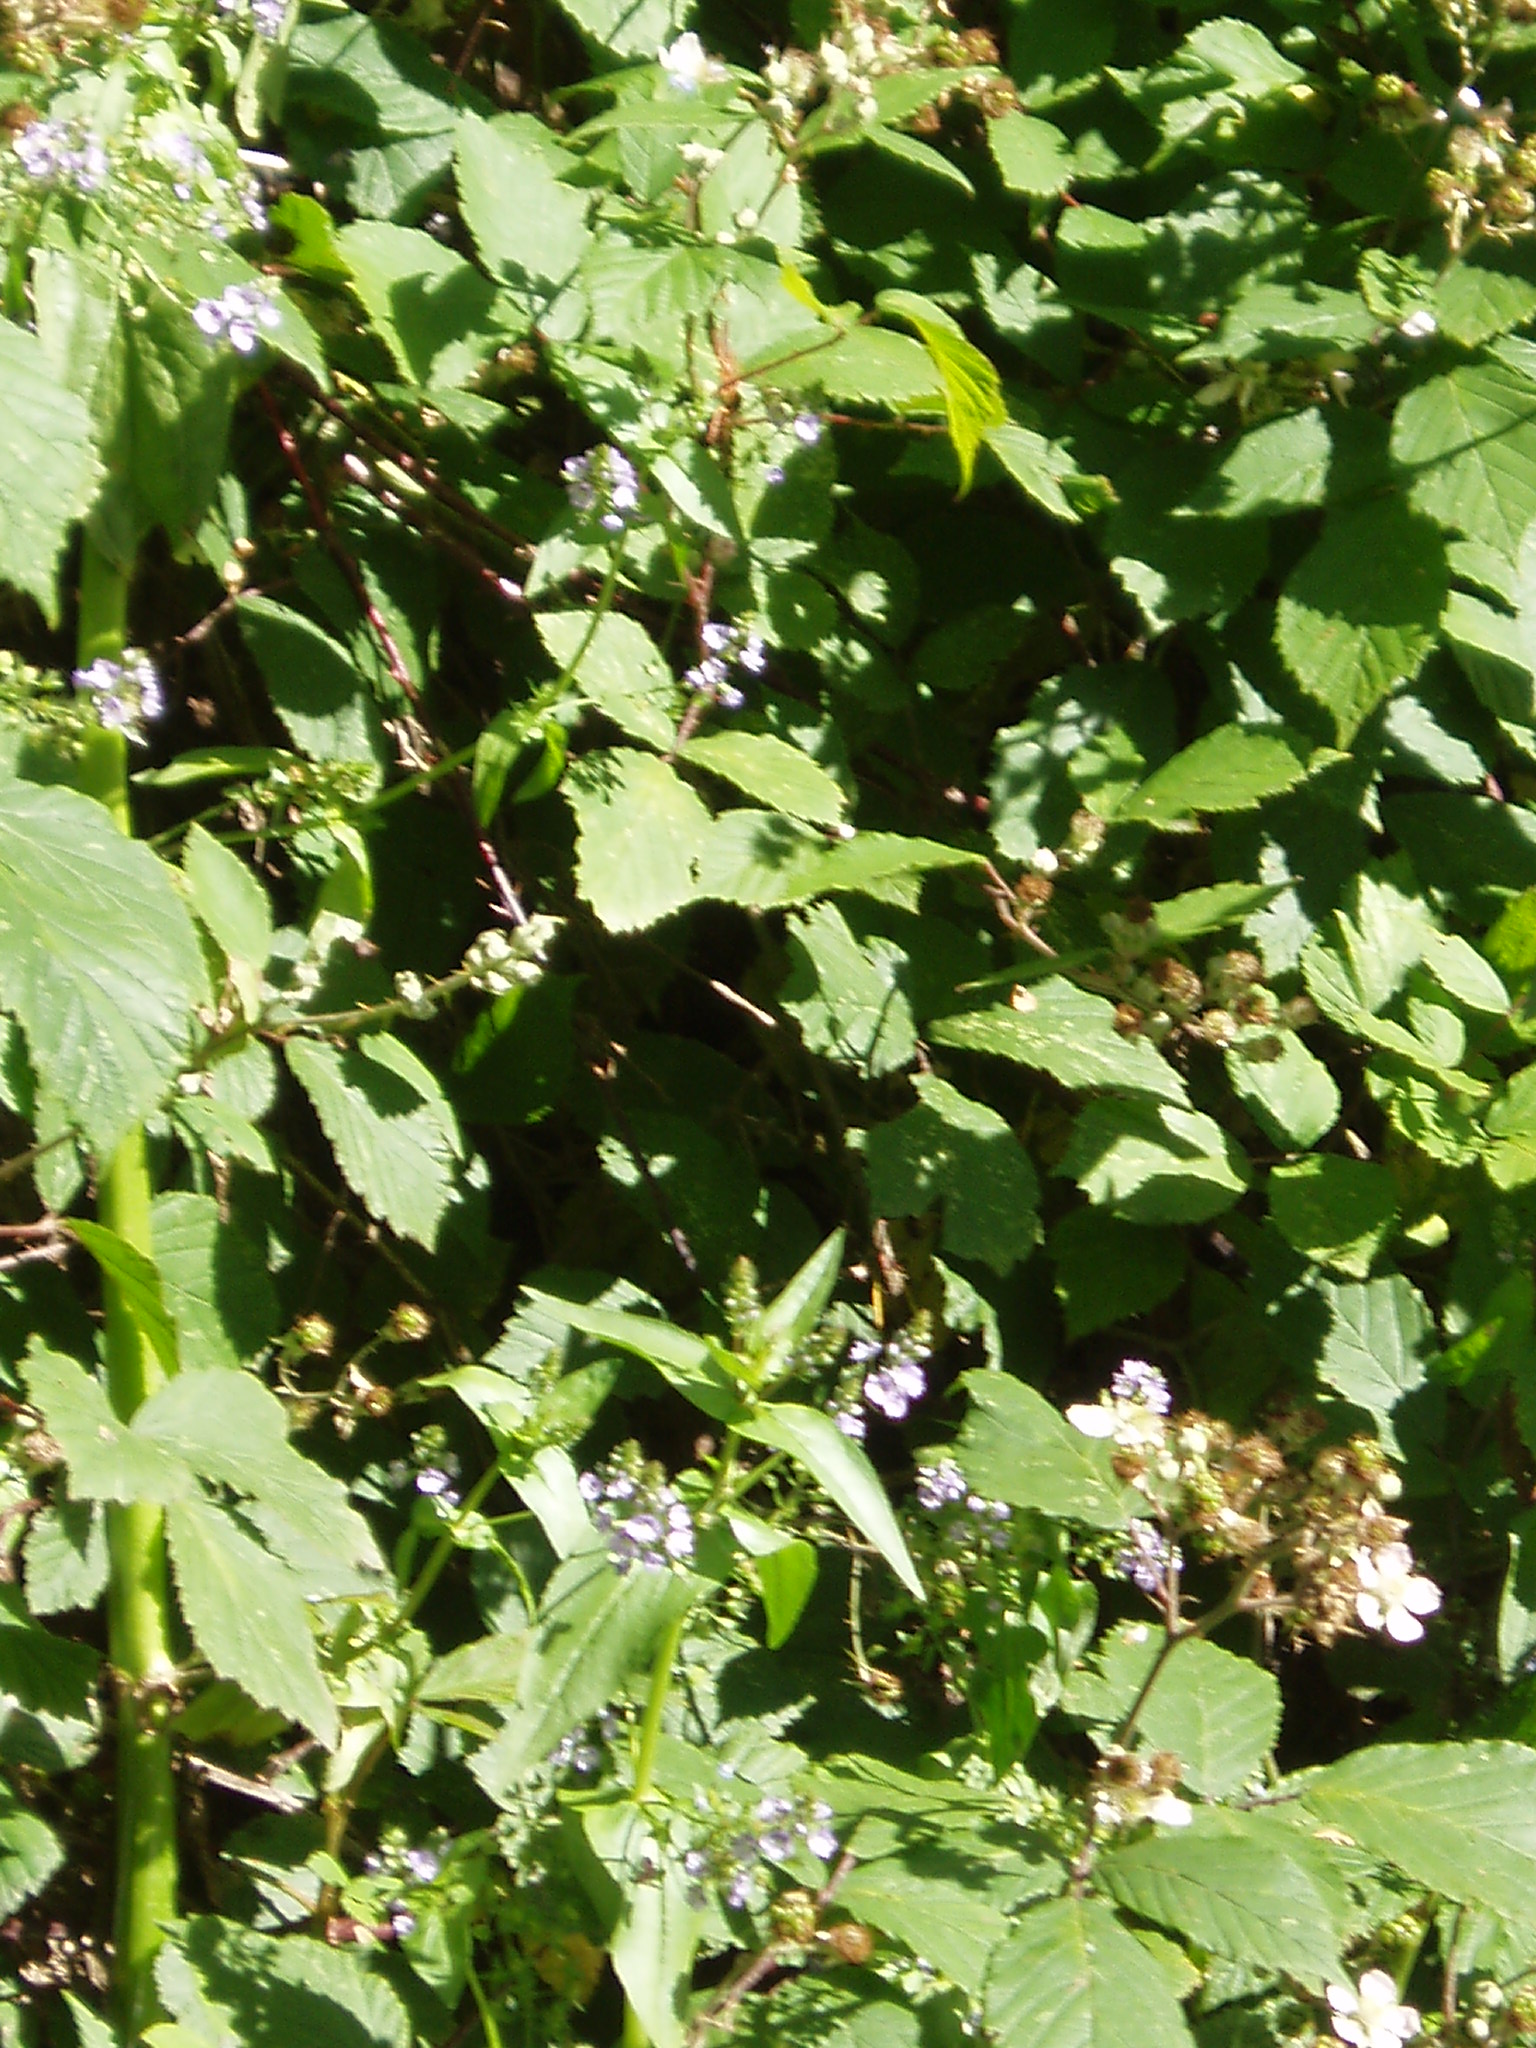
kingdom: Plantae
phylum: Tracheophyta
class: Magnoliopsida
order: Lamiales
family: Plantaginaceae
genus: Veronica
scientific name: Veronica anagallis-aquatica
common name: Water speedwell
